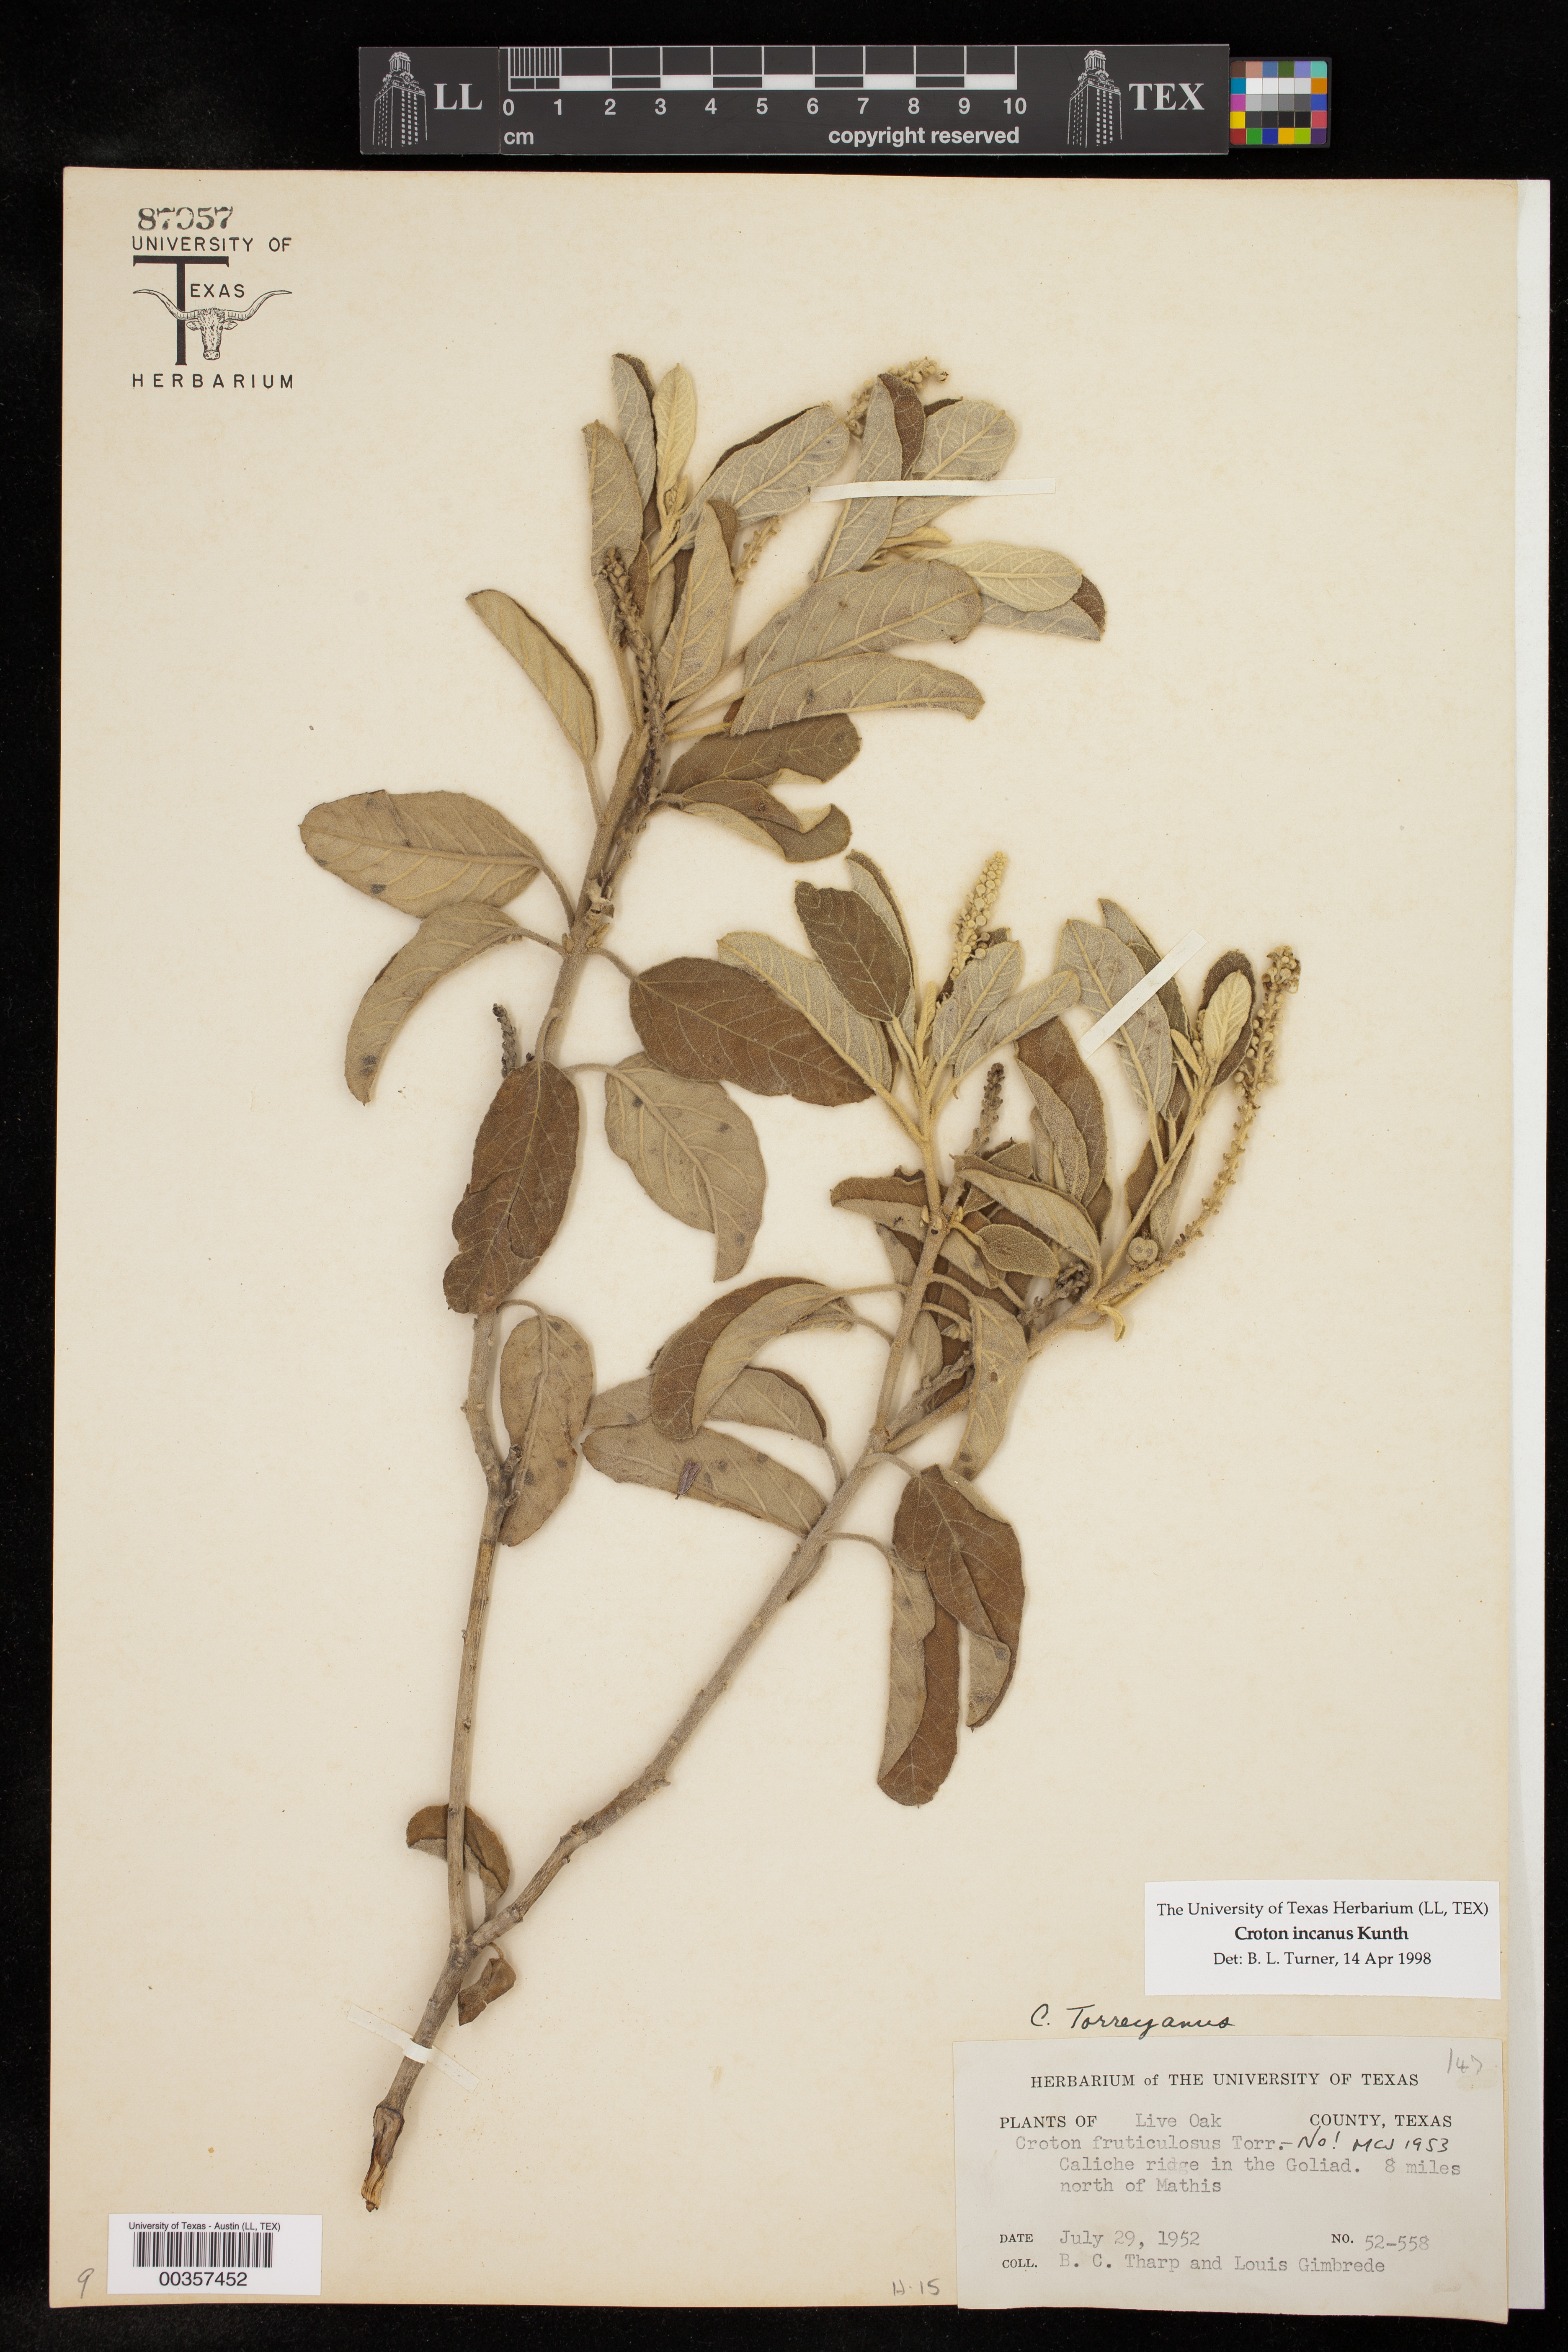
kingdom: Plantae
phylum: Tracheophyta
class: Magnoliopsida
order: Malpighiales
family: Euphorbiaceae
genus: Croton
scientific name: Croton incanus
